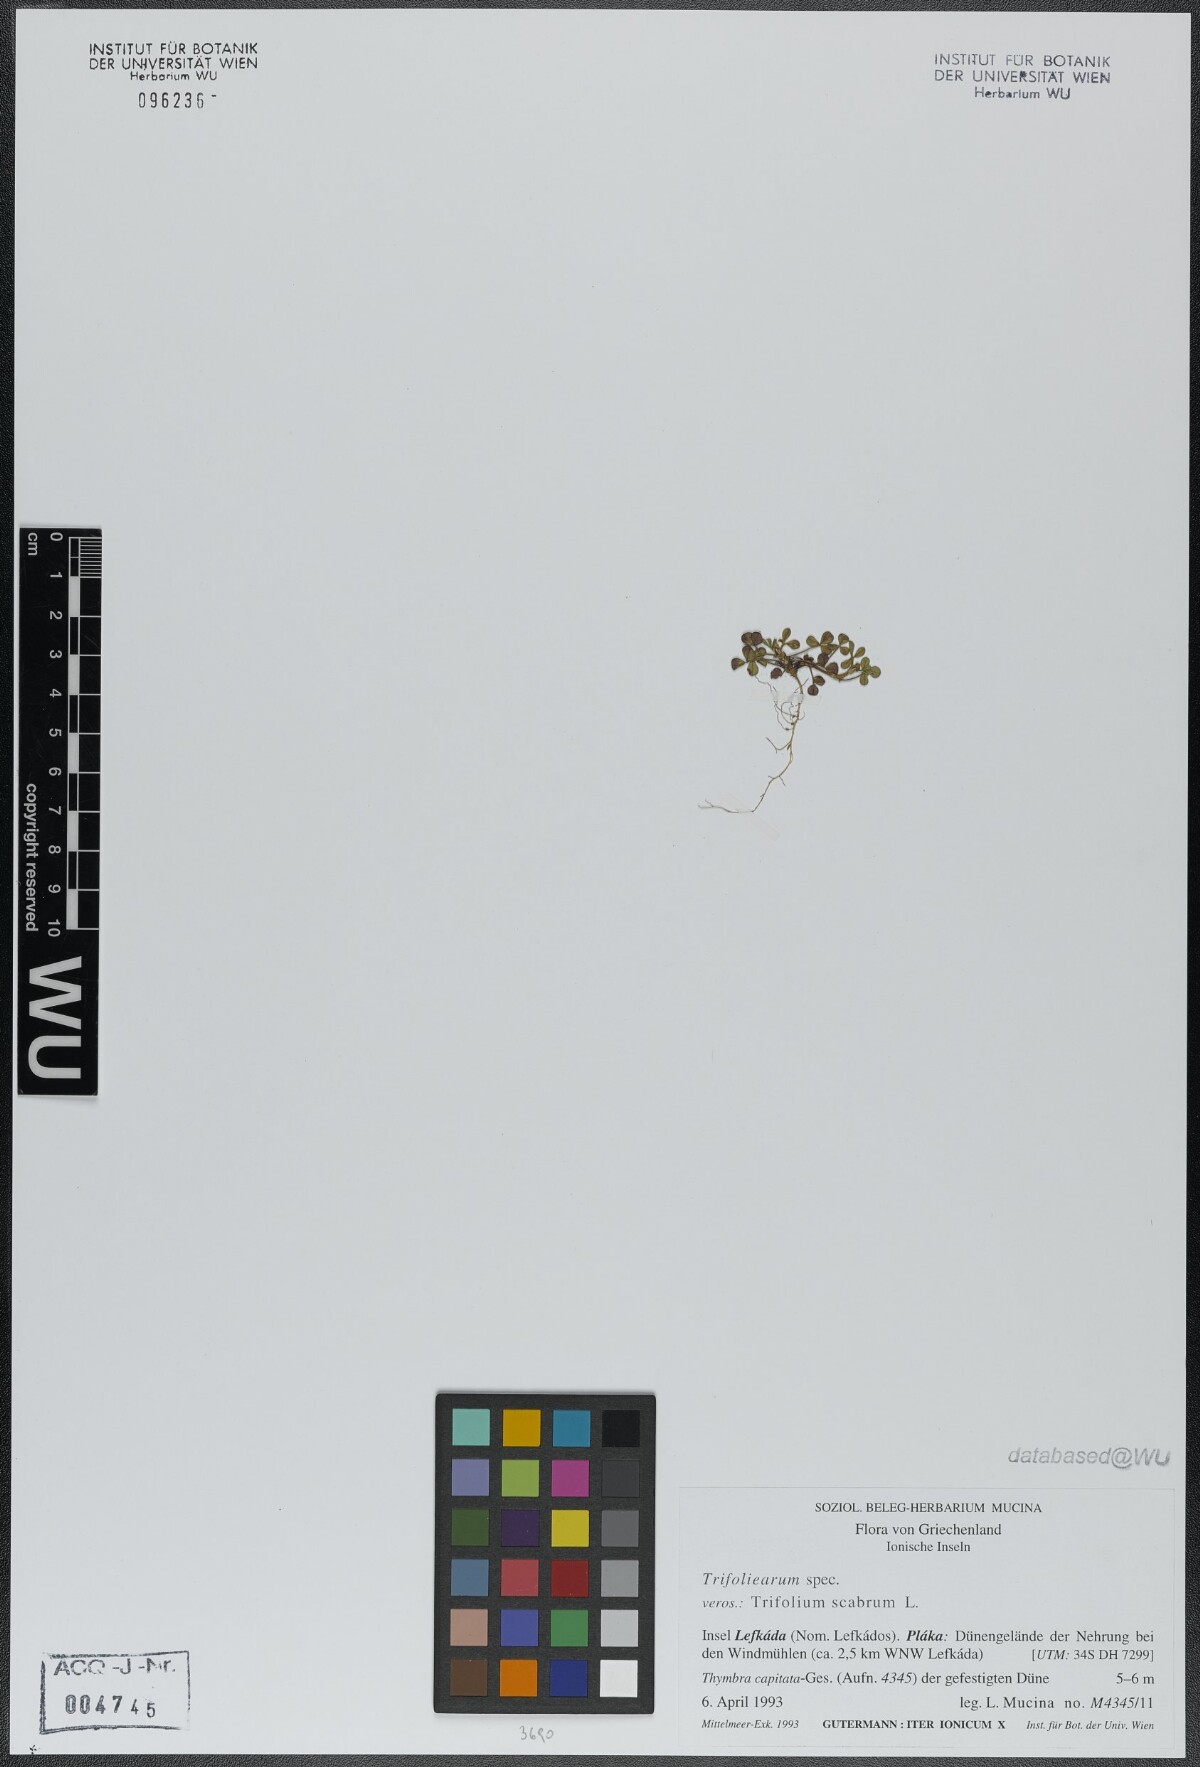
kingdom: Plantae
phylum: Tracheophyta
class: Magnoliopsida
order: Fabales
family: Fabaceae
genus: Trifolium
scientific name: Trifolium scabrum
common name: Rough clover
